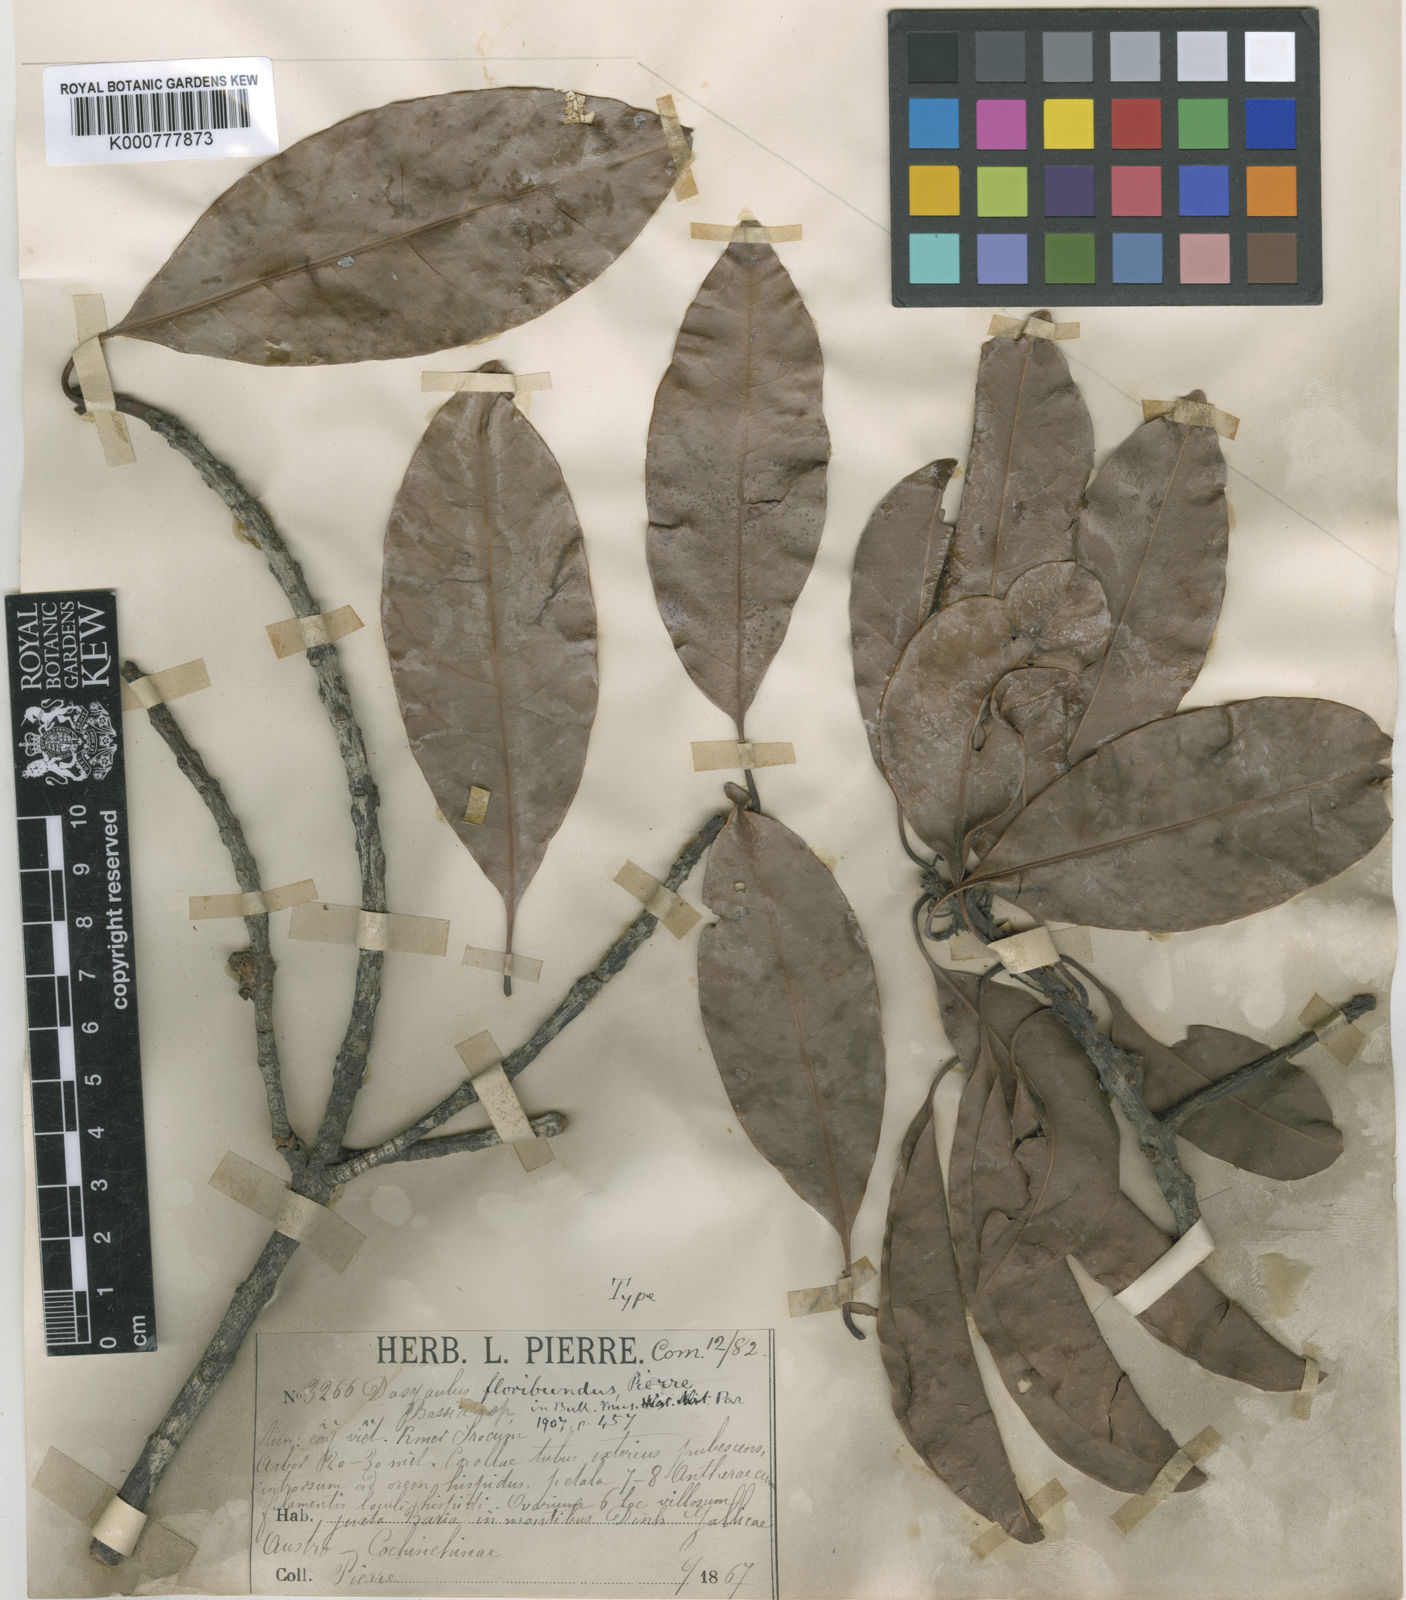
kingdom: Plantae
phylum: Tracheophyta
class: Magnoliopsida
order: Ericales
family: Sapotaceae
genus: Madhuca
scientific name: Madhuca floribunda
